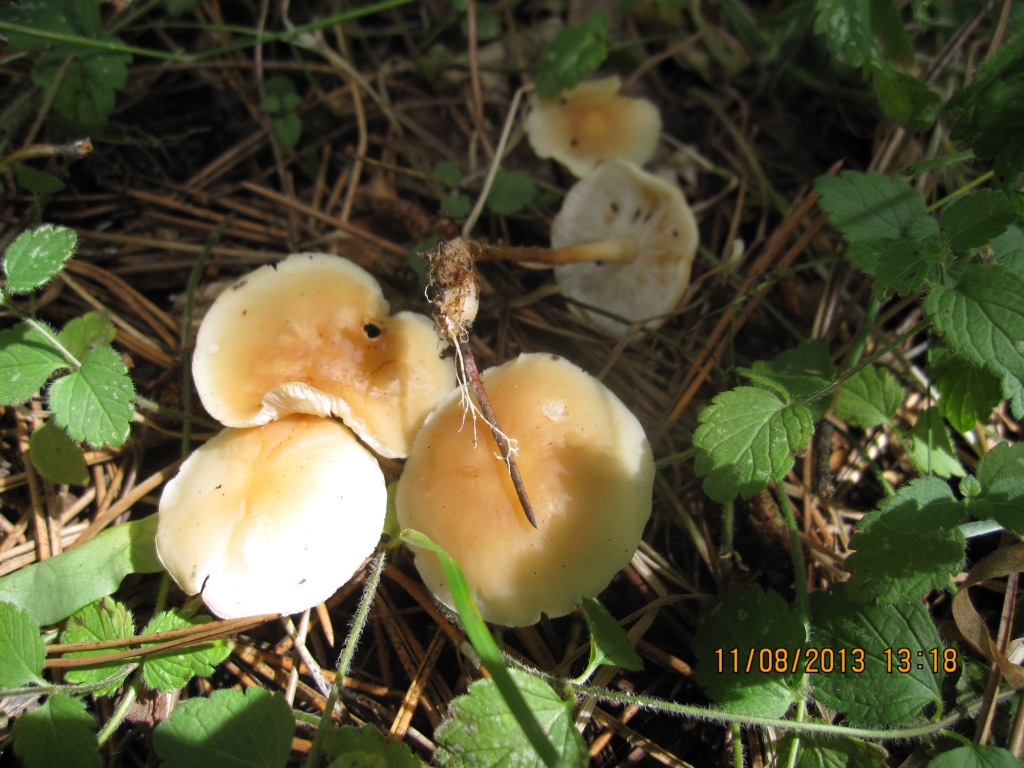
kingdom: Fungi
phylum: Basidiomycota
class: Agaricomycetes
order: Agaricales
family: Omphalotaceae
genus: Gymnopus
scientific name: Gymnopus dryophilus
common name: løv-fladhat
